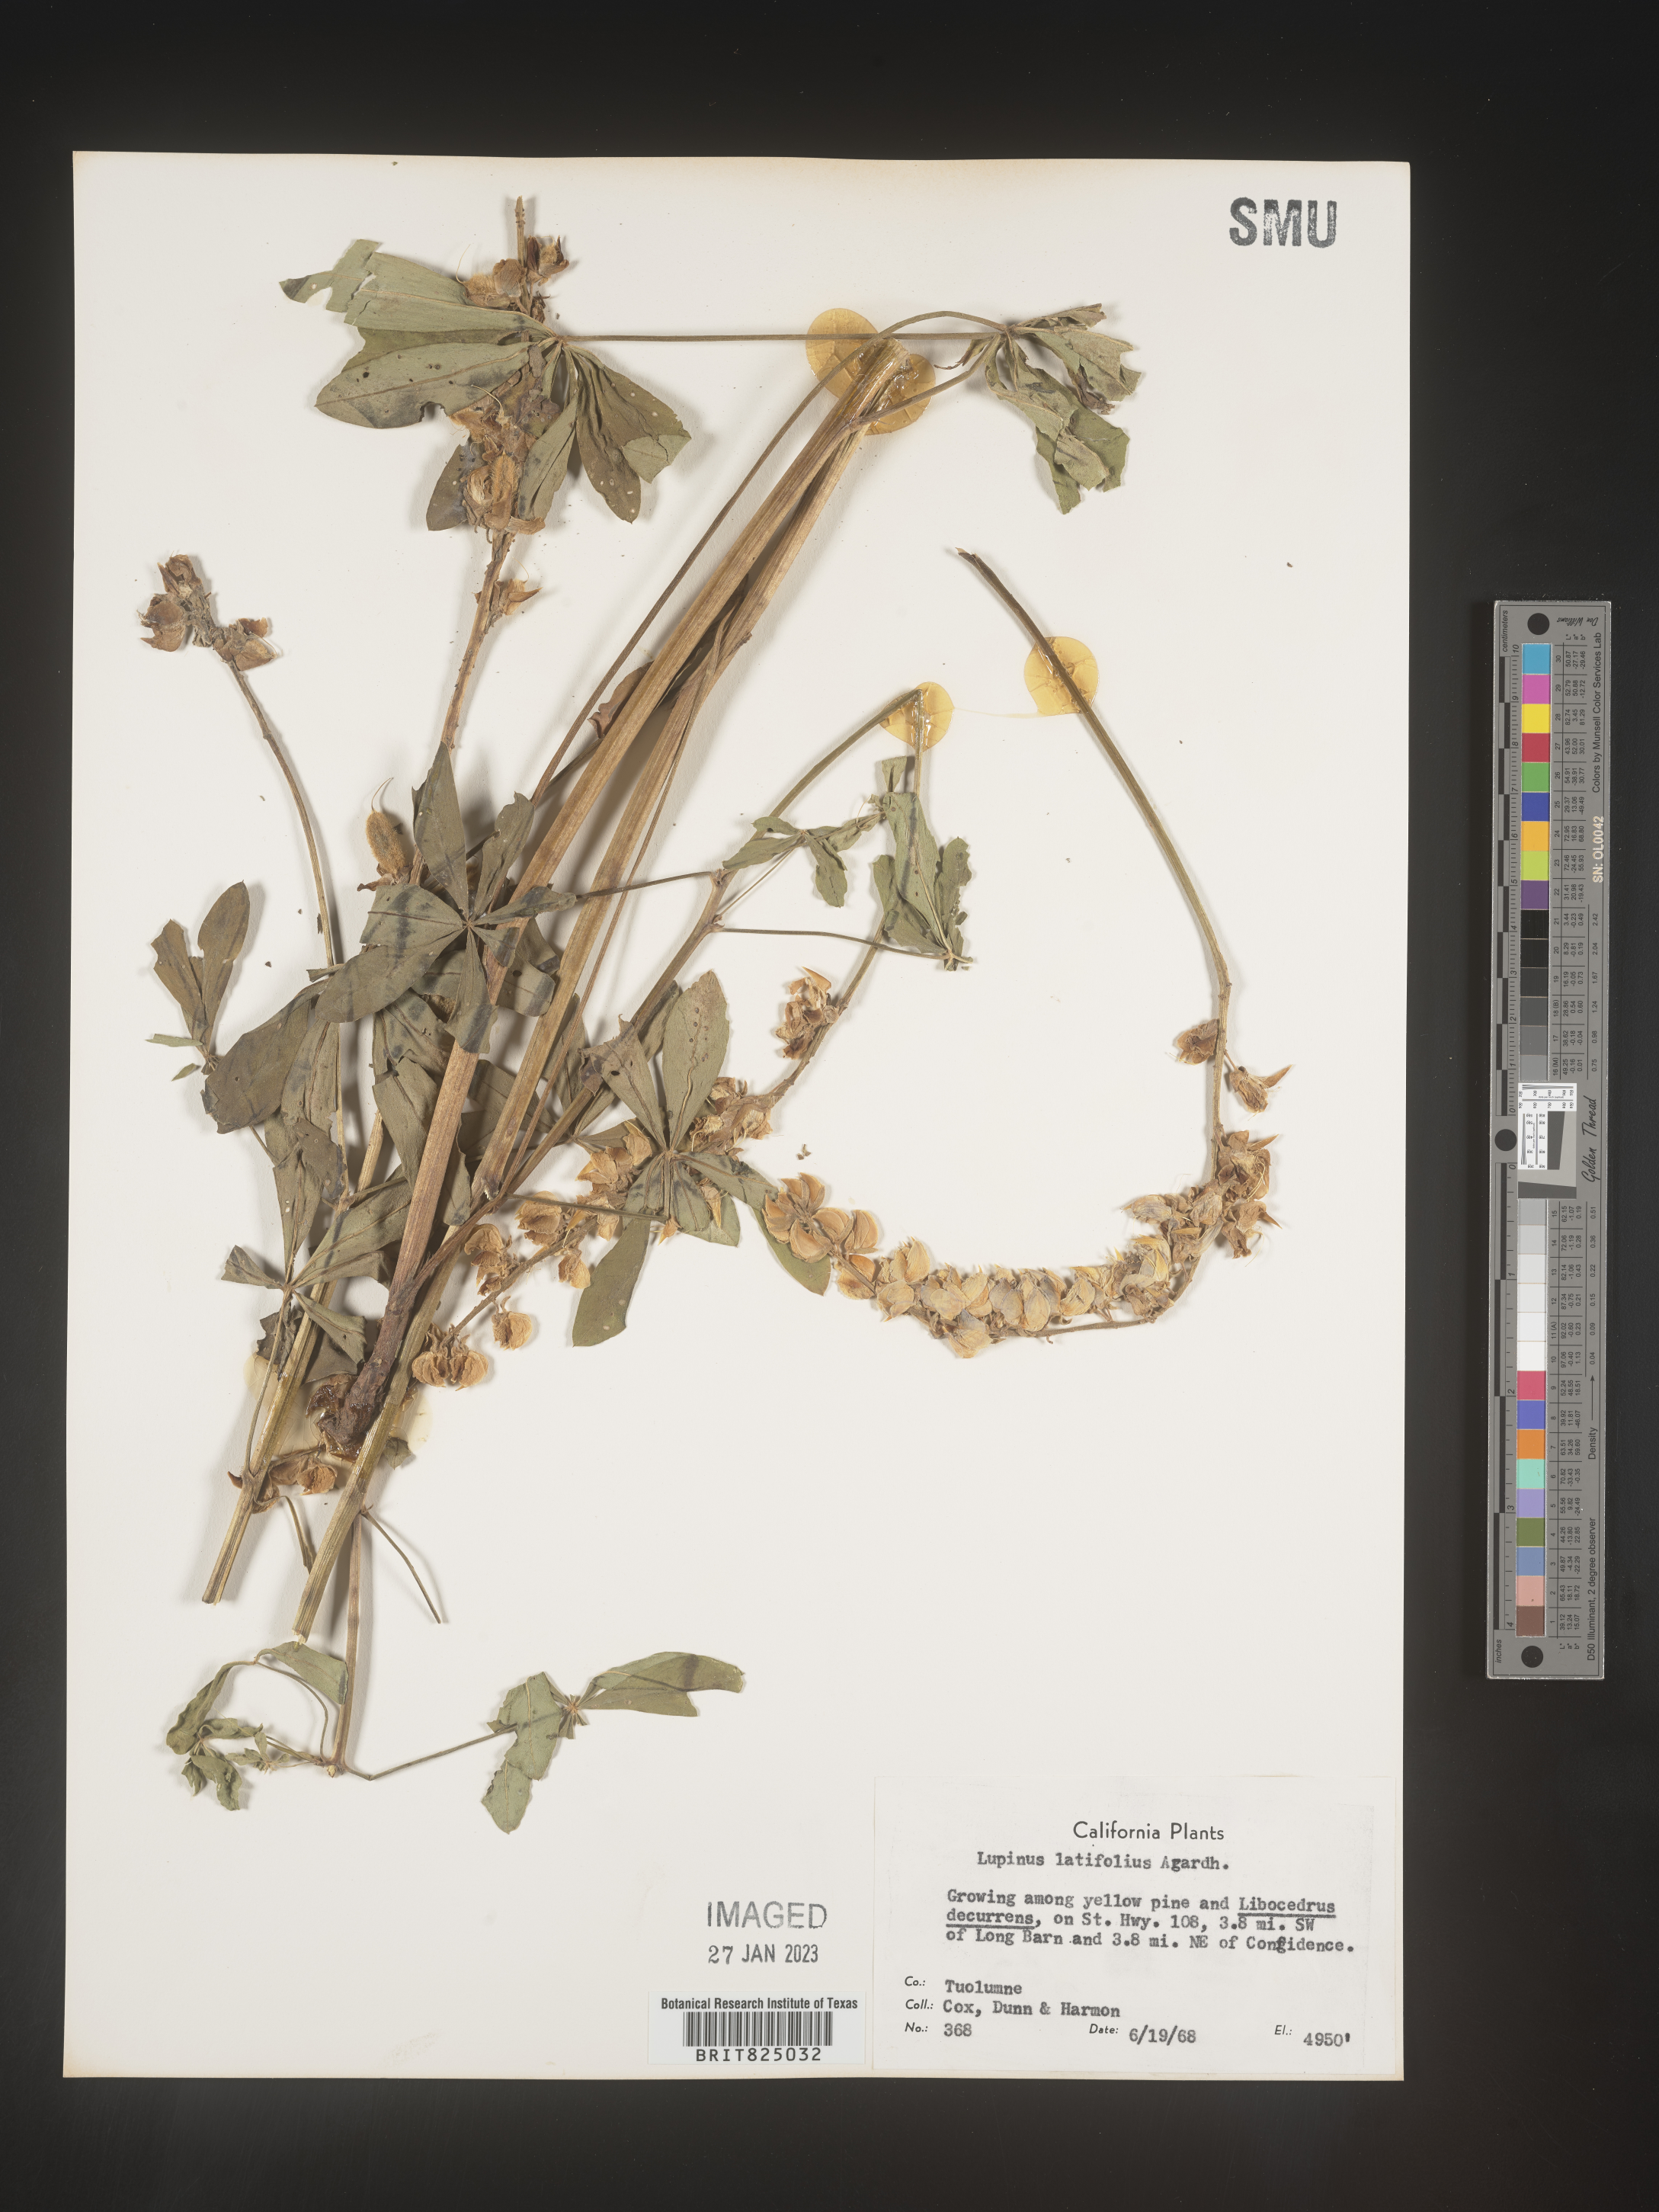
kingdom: Plantae
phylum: Tracheophyta
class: Magnoliopsida
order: Fabales
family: Fabaceae
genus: Lupinus
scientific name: Lupinus
